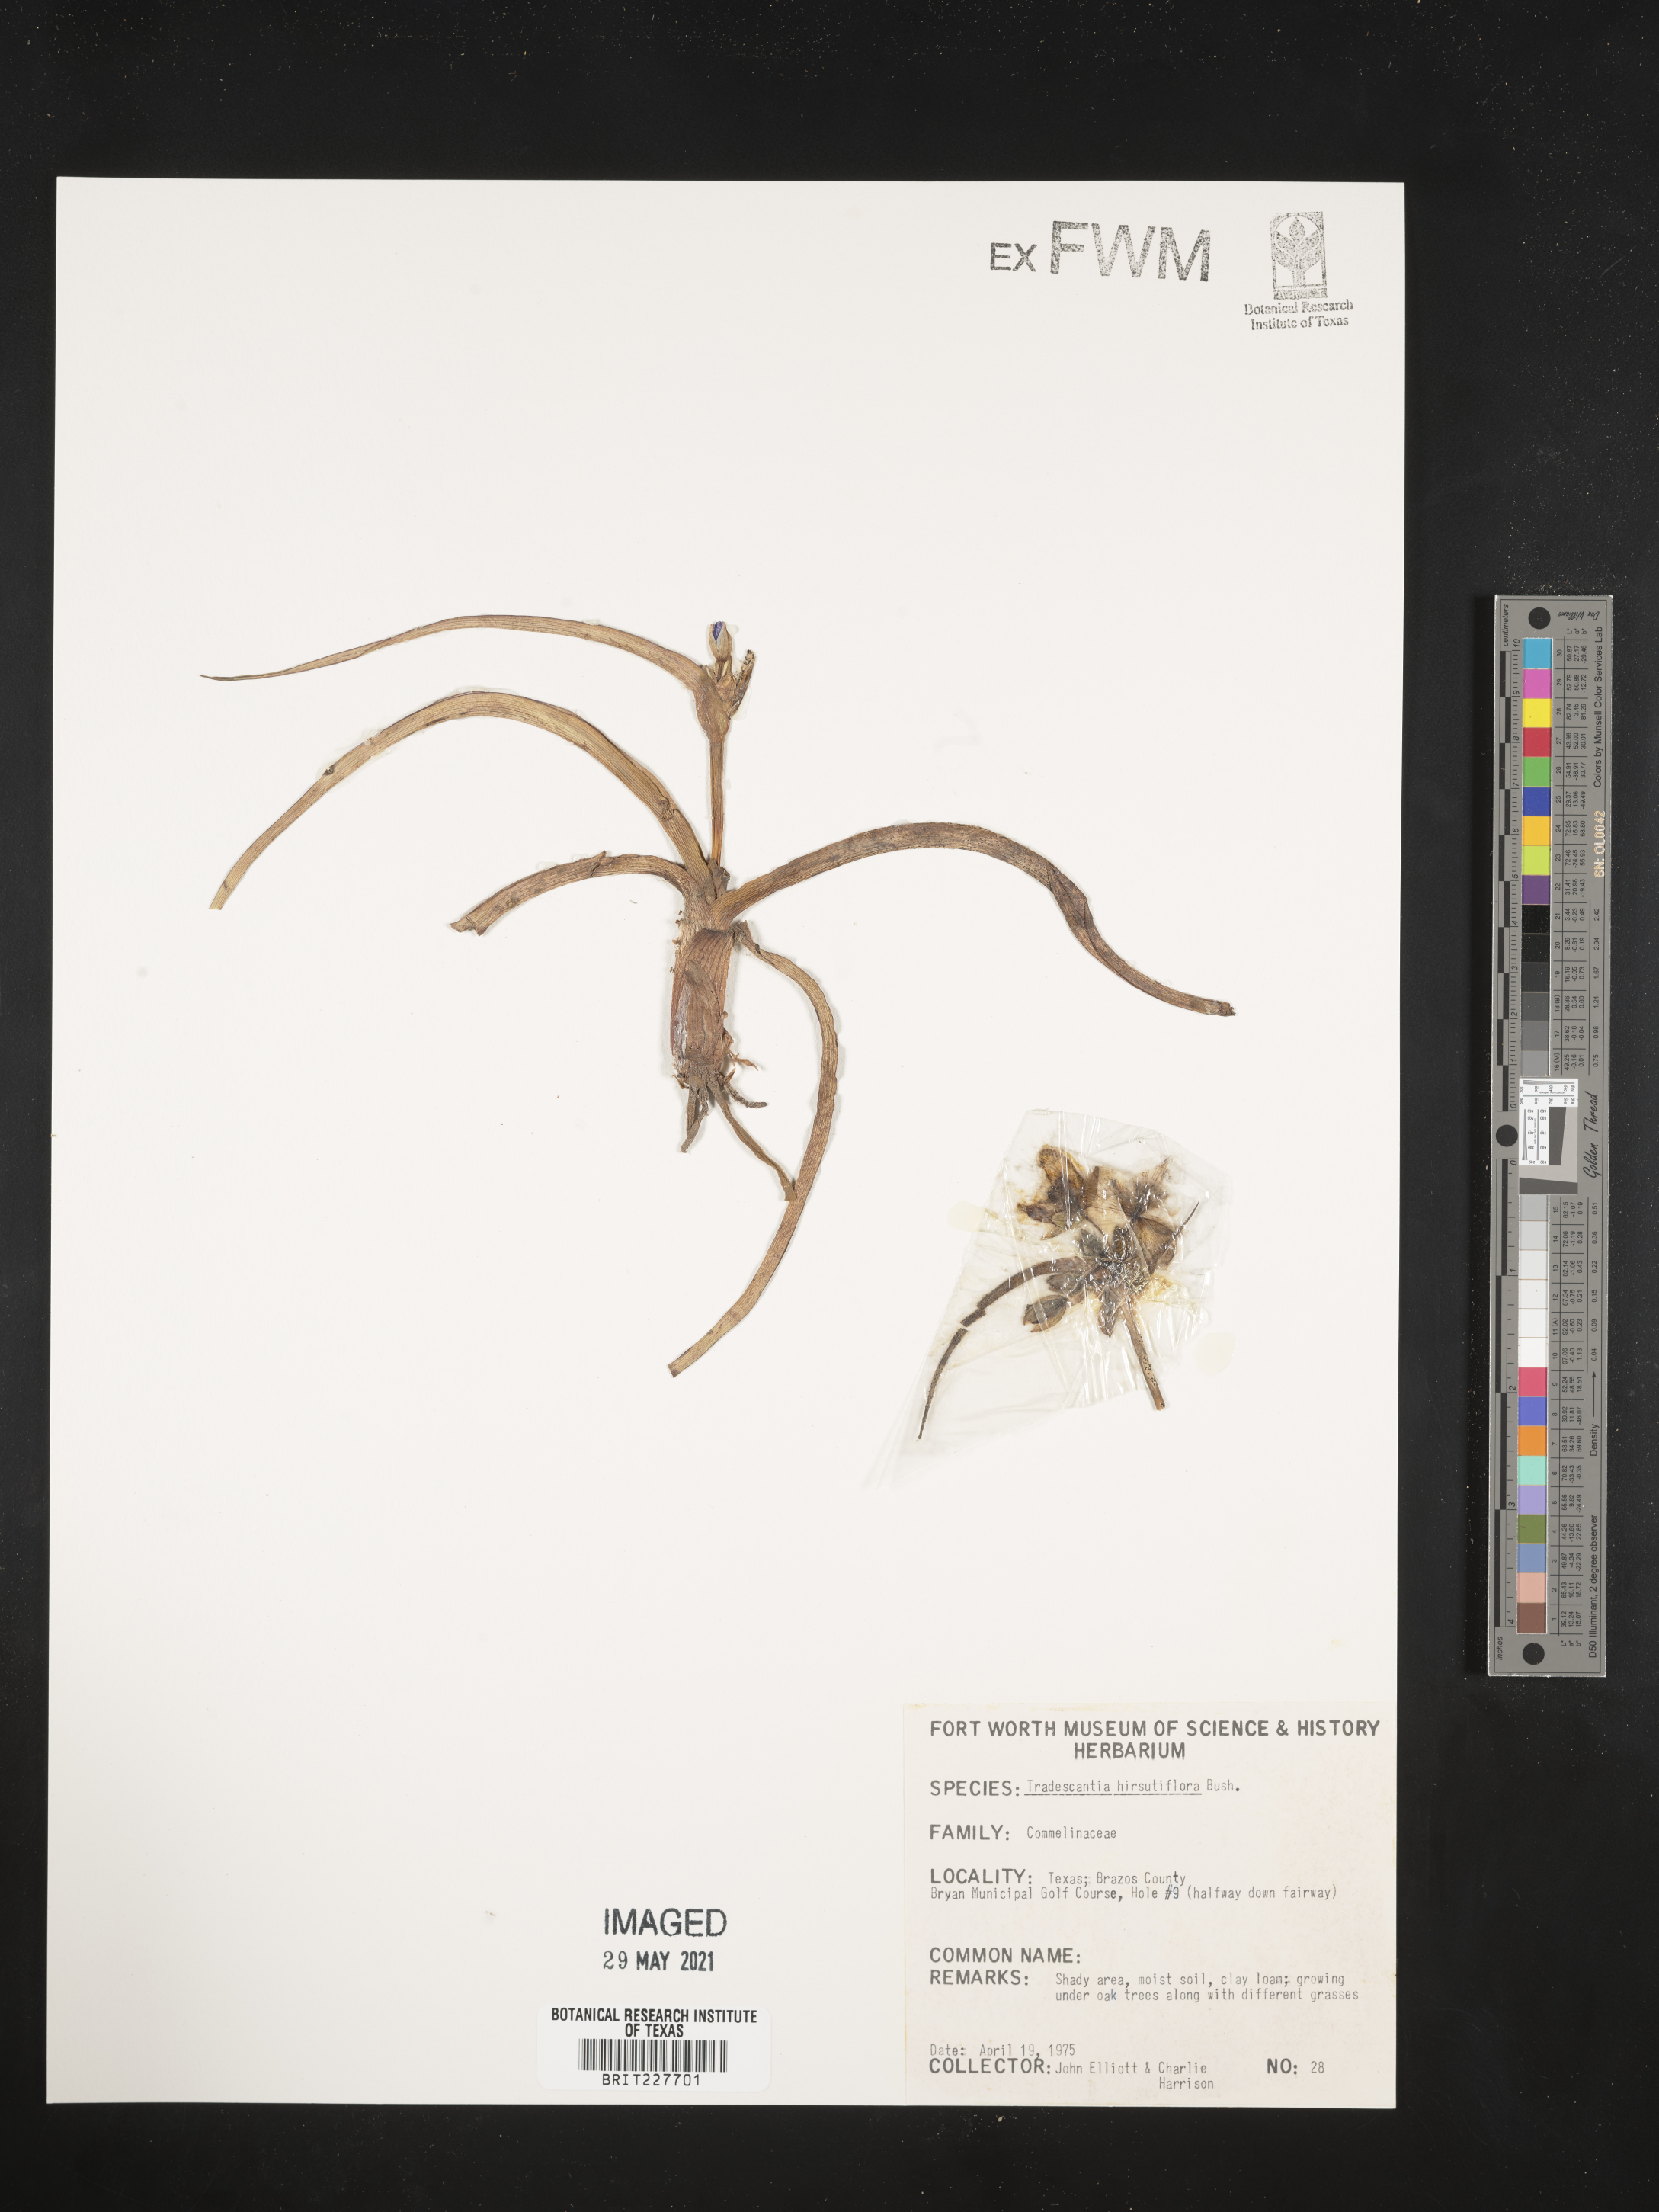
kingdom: Plantae
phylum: Tracheophyta
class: Liliopsida
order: Commelinales
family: Commelinaceae
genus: Tradescantia
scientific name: Tradescantia hirsutiflora
